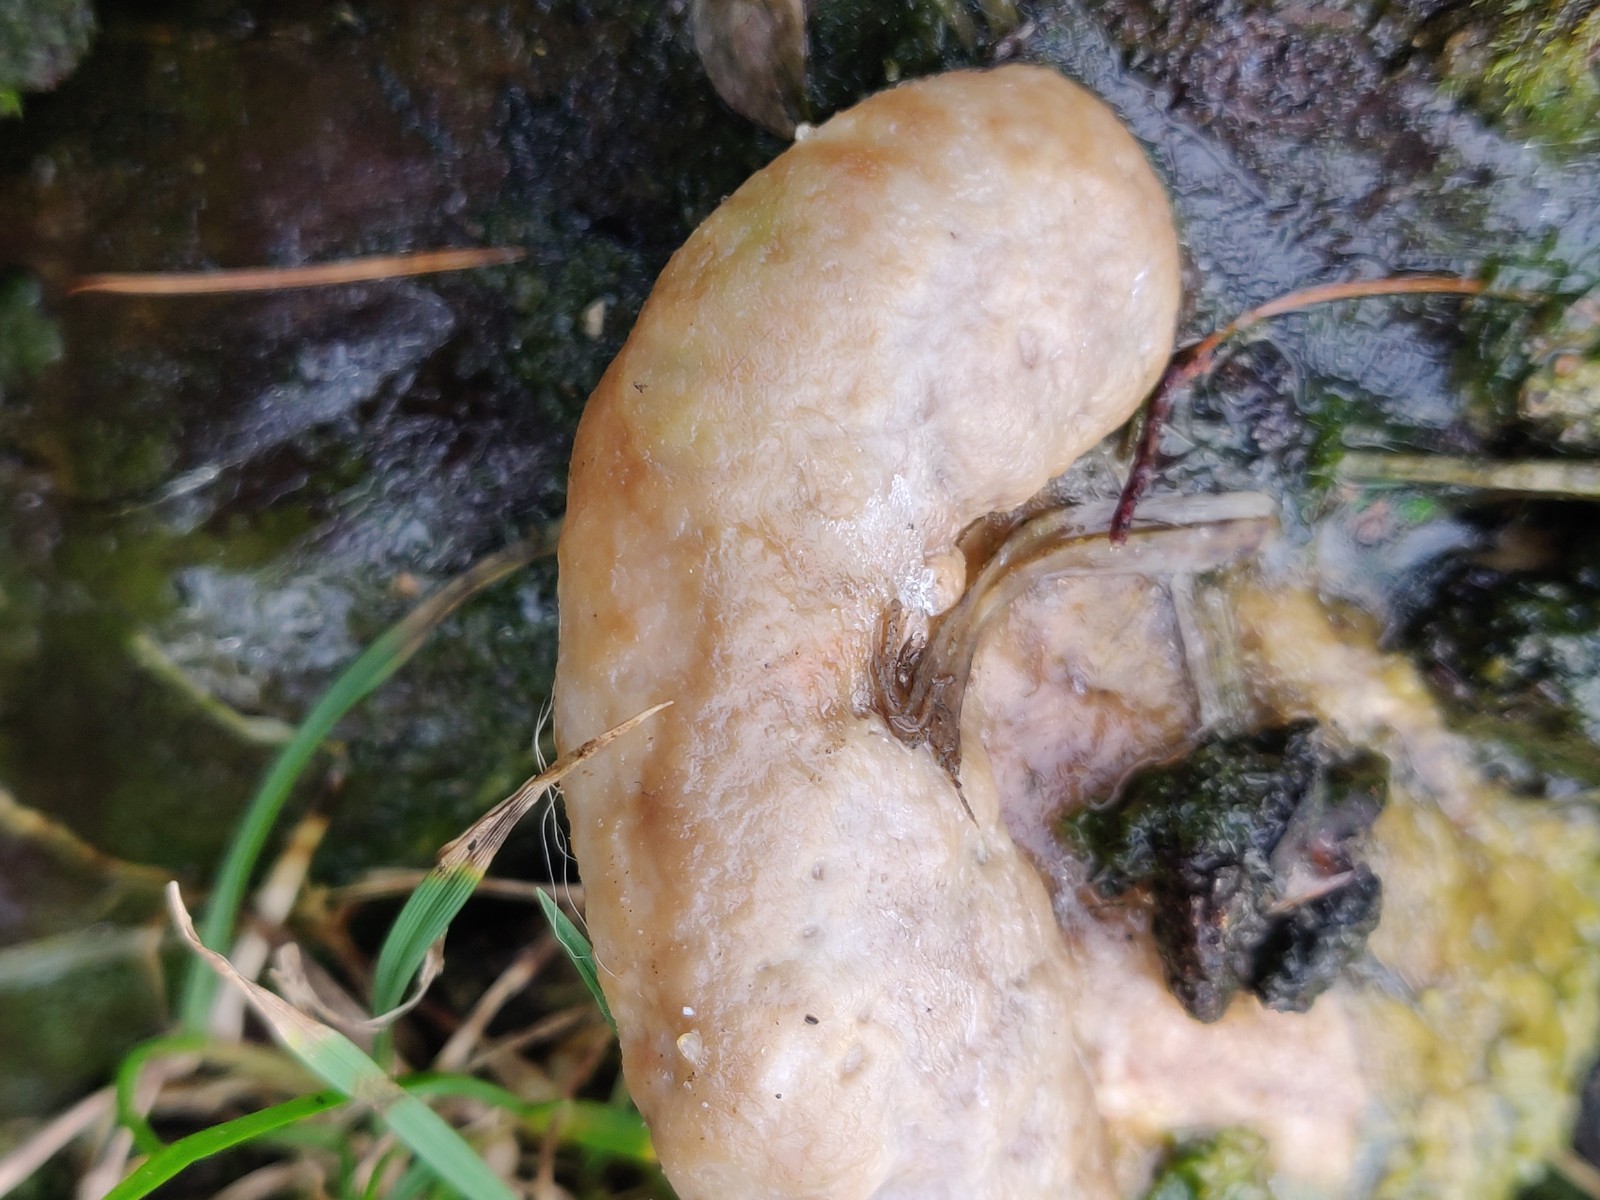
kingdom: Fungi
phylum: Basidiomycota
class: Agaricomycetes
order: Polyporales
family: Fomitopsidaceae
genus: Daedalea
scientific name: Daedalea quercina
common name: ege-labyrintsvamp
